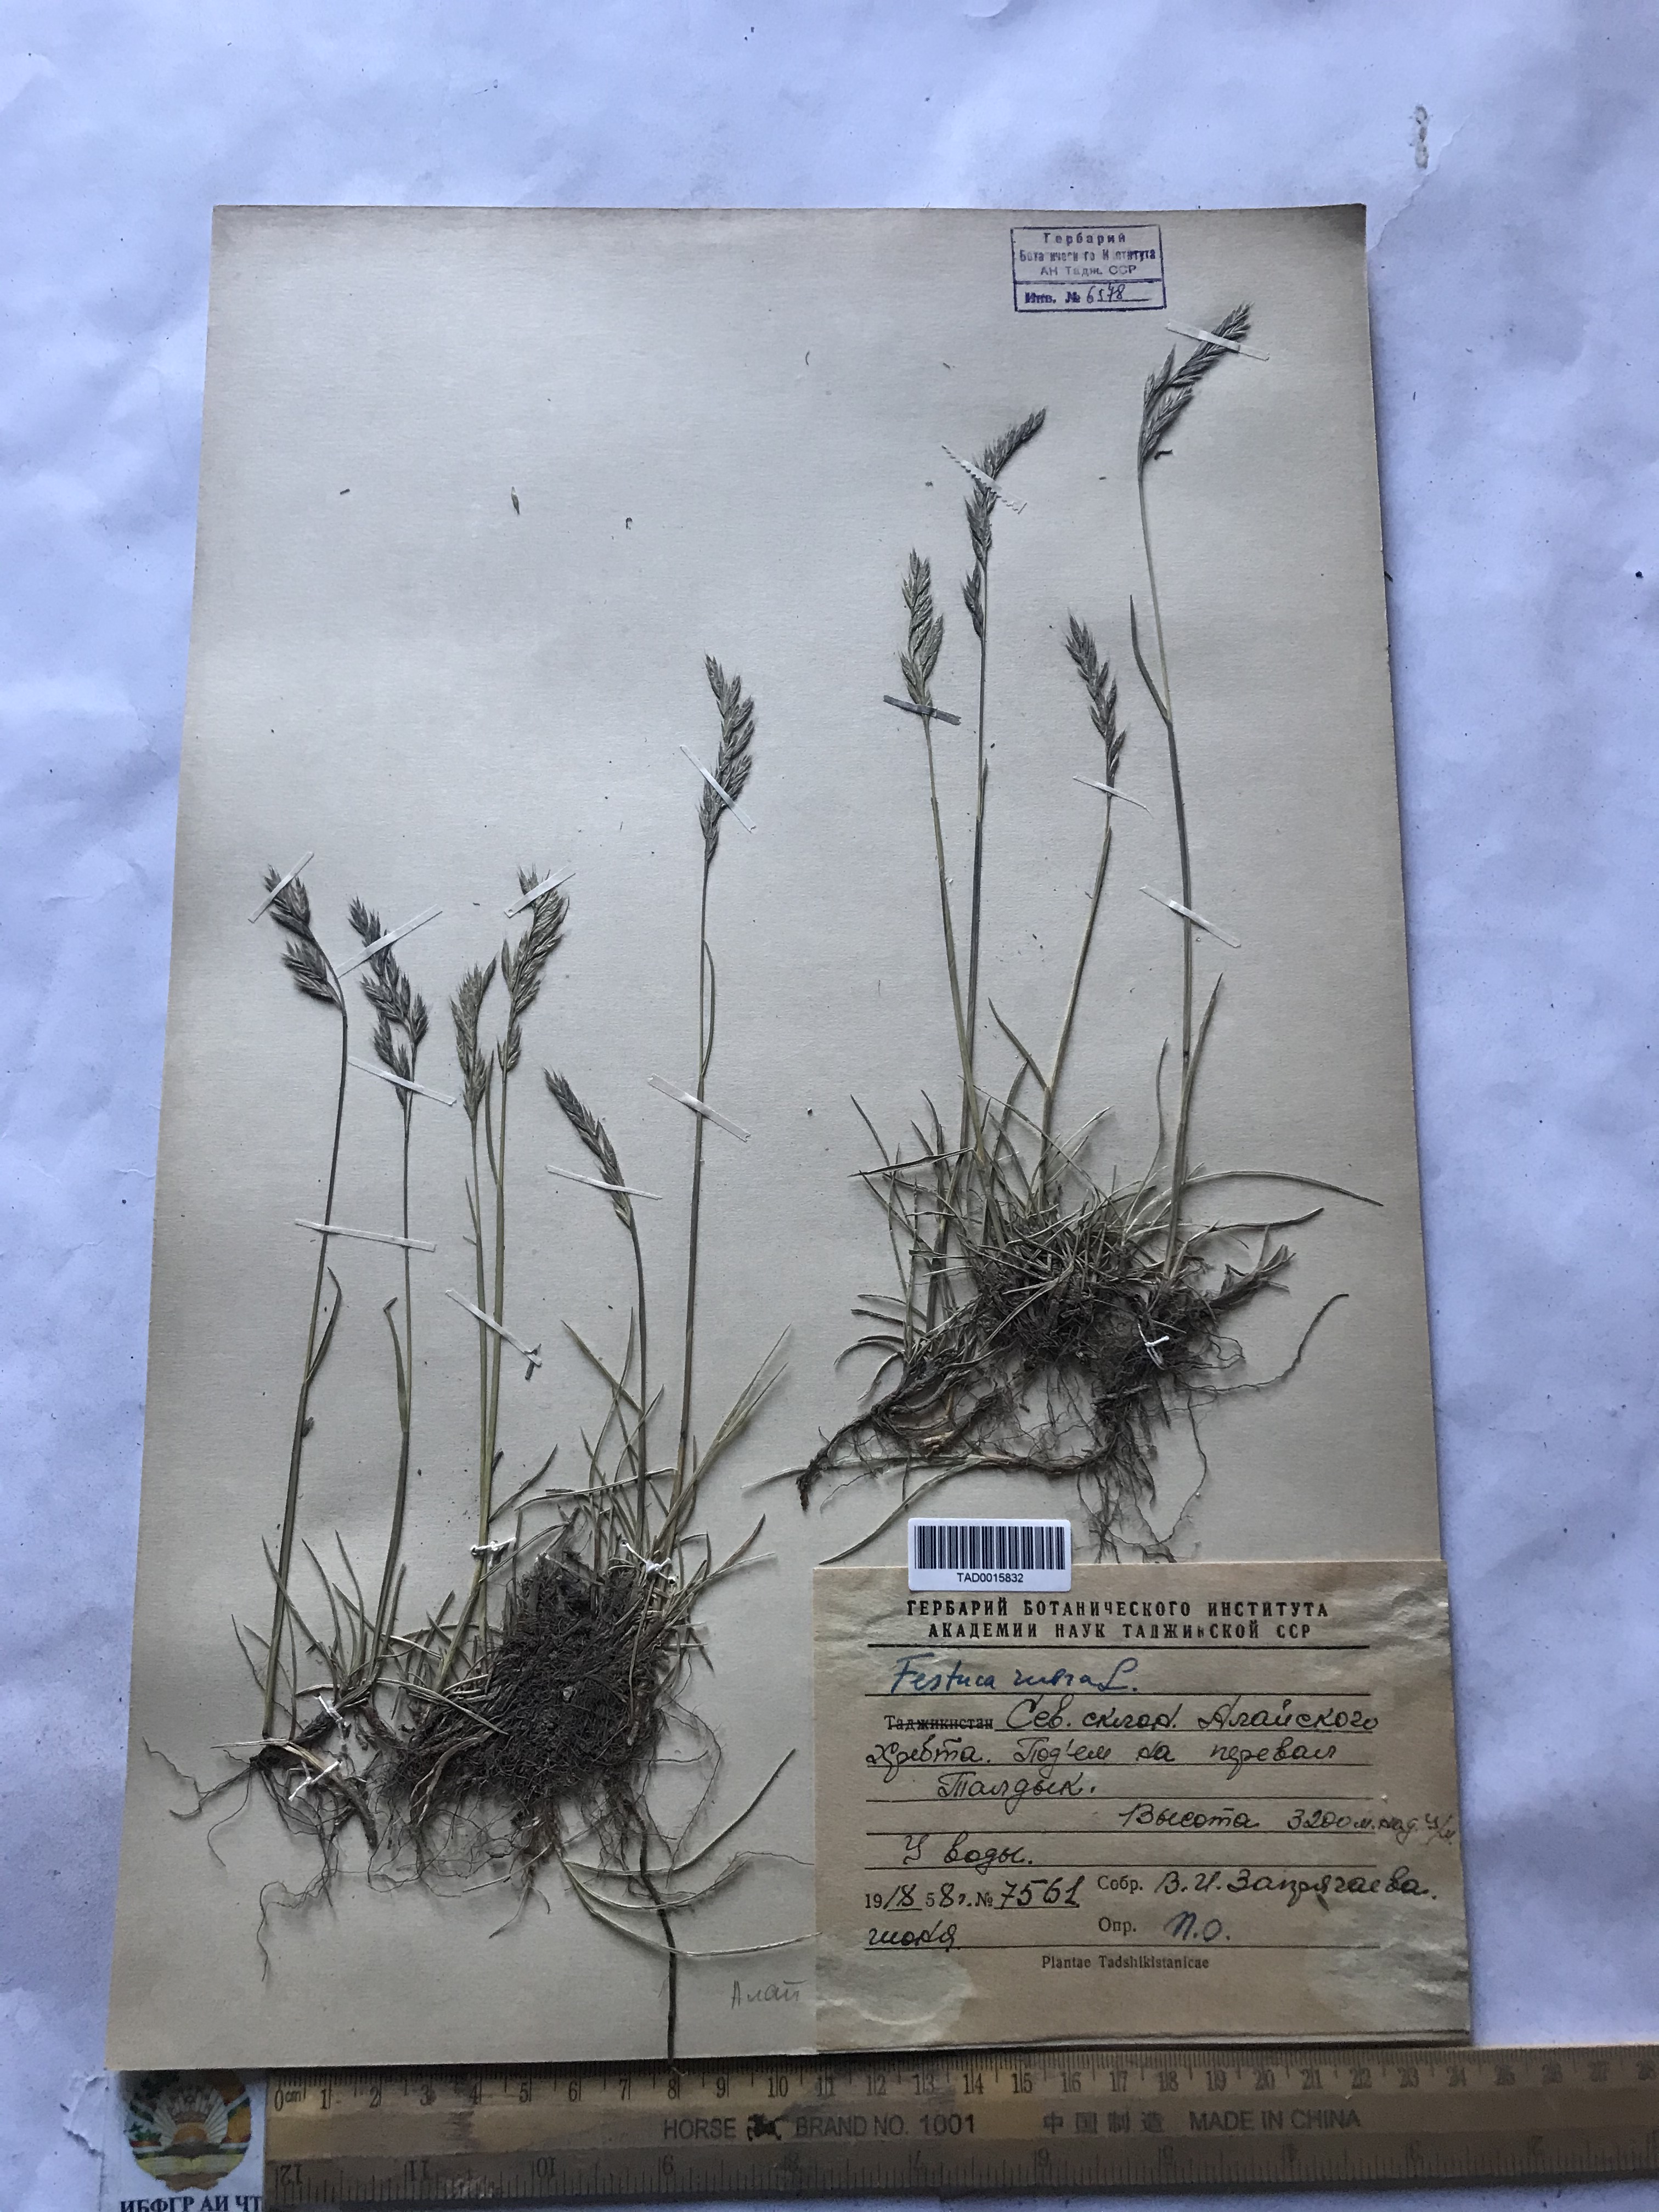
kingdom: Plantae
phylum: Tracheophyta
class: Liliopsida
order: Poales
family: Poaceae
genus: Festuca
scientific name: Festuca rubra
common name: Red fescue
